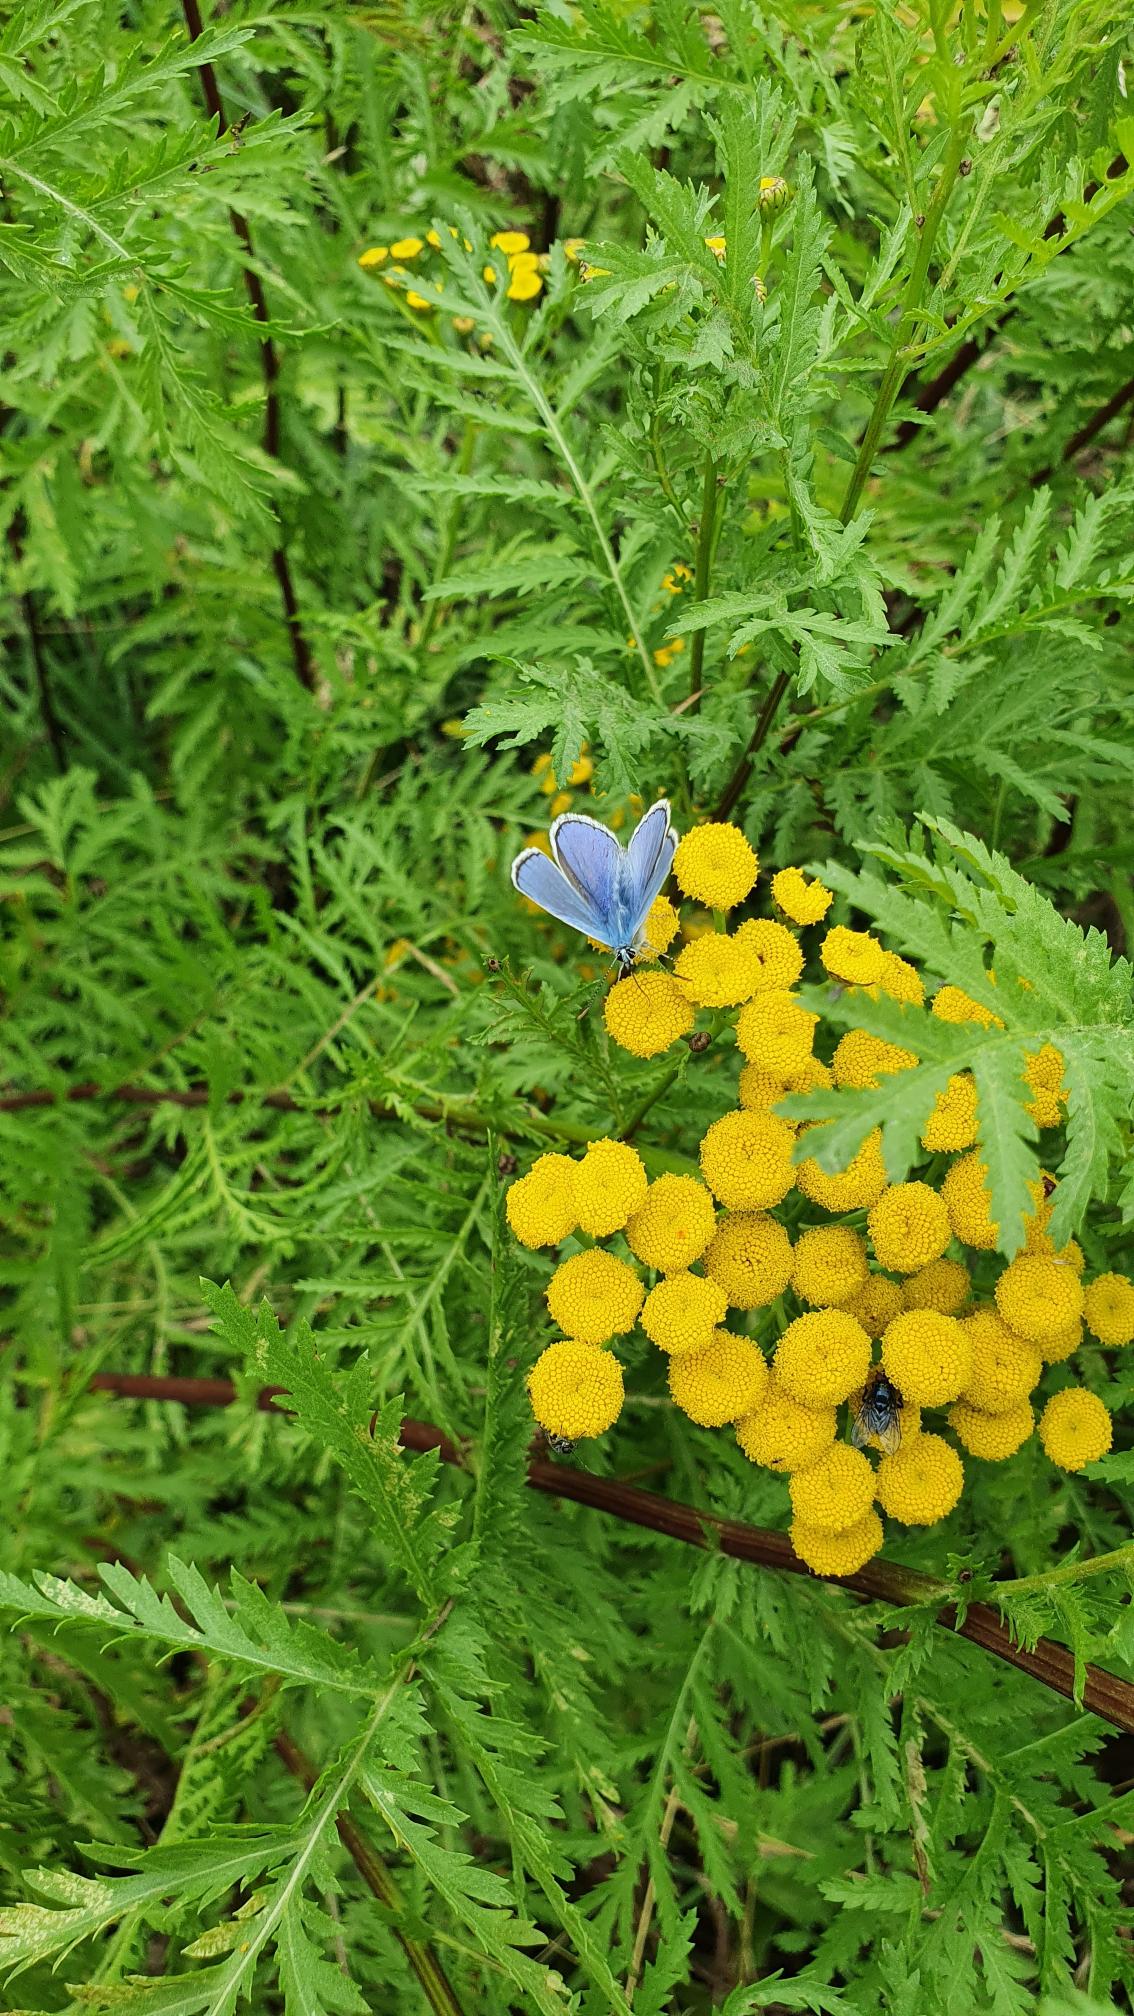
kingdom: Animalia
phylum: Arthropoda
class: Insecta
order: Lepidoptera
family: Lycaenidae
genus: Polyommatus
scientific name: Polyommatus icarus
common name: Almindelig blåfugl
